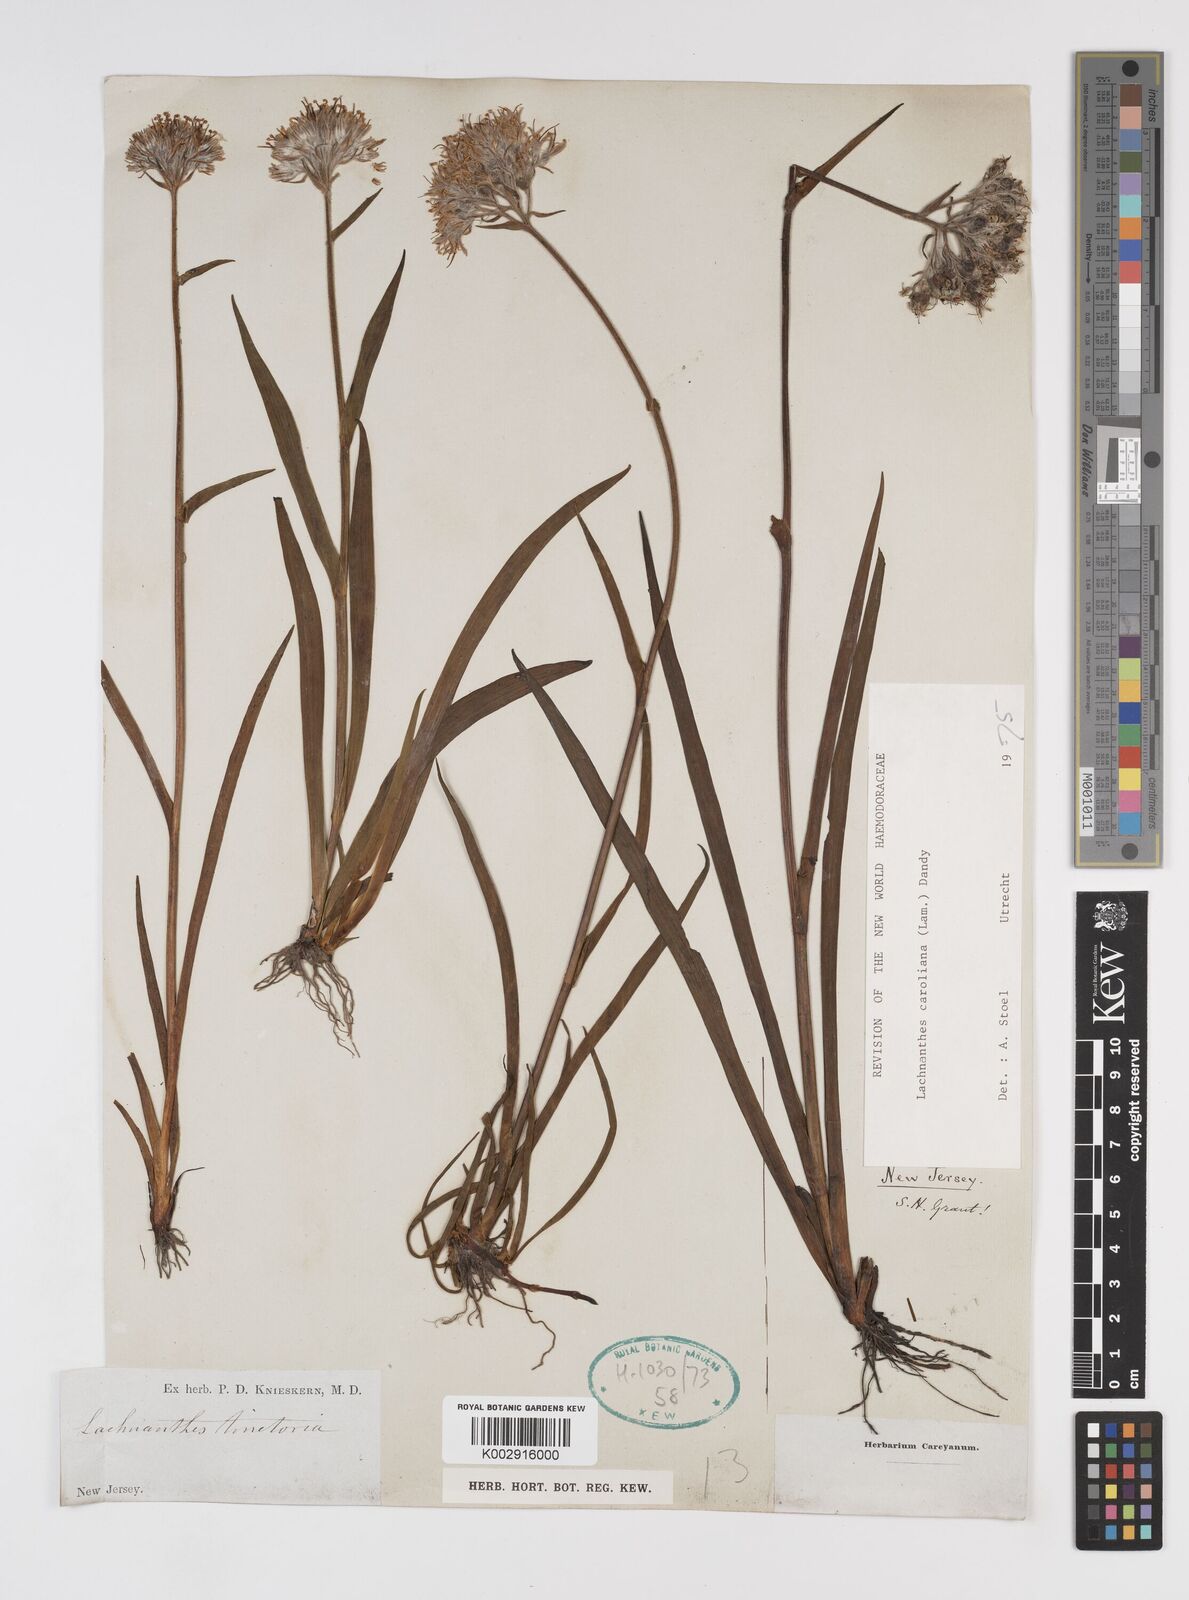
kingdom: Plantae
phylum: Tracheophyta
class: Liliopsida
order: Commelinales
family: Haemodoraceae
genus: Lachnanthes
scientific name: Lachnanthes caroliniana
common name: Carolina redroot
